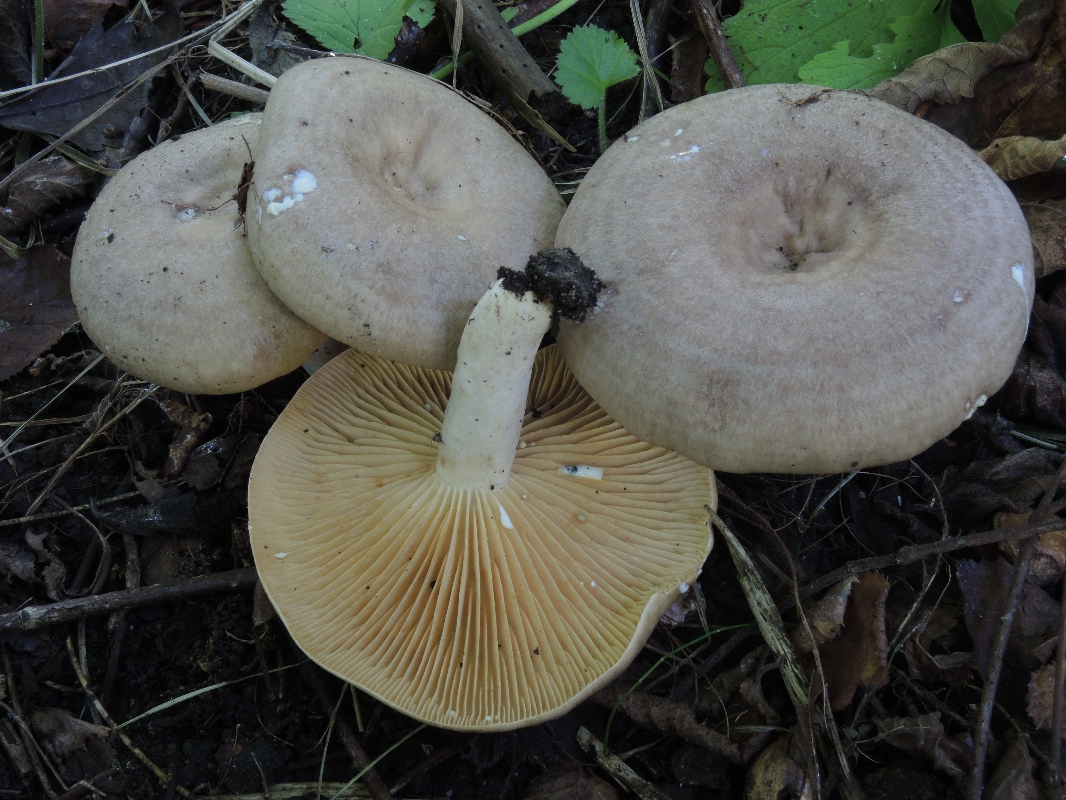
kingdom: Fungi
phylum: Basidiomycota
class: Agaricomycetes
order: Russulales
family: Russulaceae
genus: Lactarius
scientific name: Lactarius pyrogalus
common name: hassel-mælkehat
